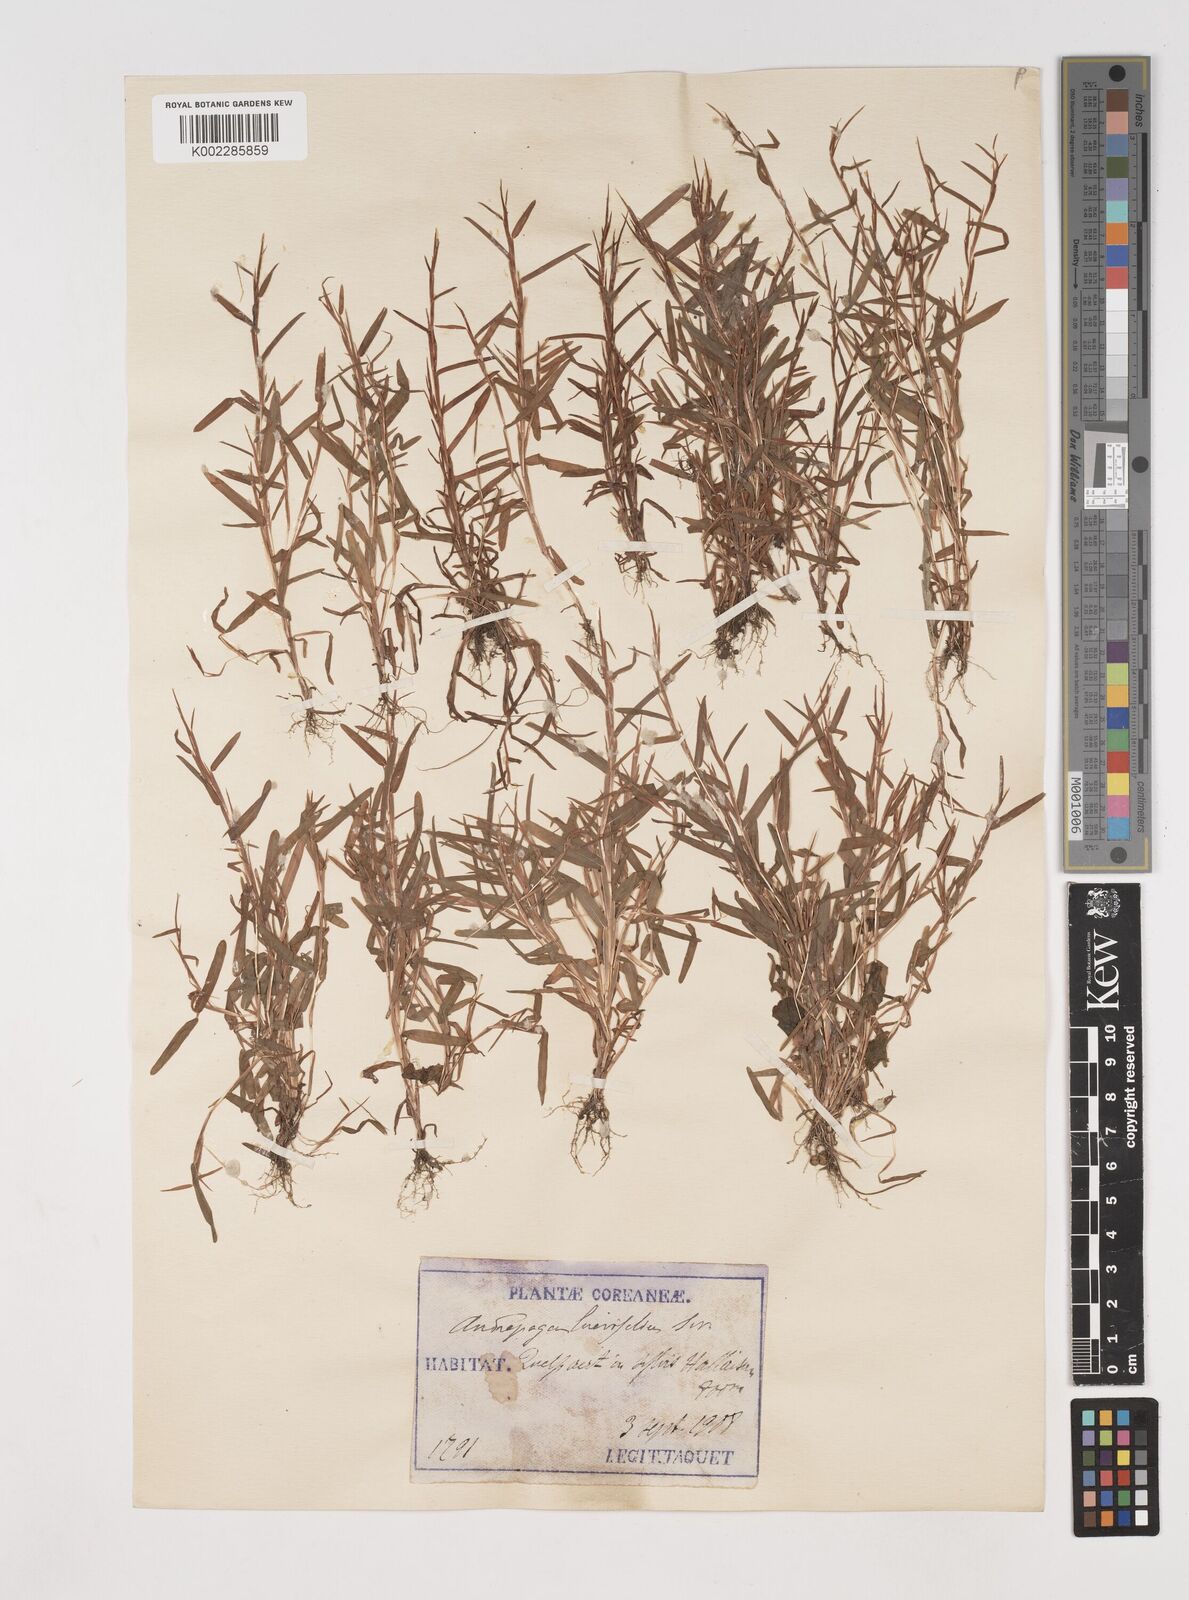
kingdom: Plantae
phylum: Tracheophyta
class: Liliopsida
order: Poales
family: Poaceae
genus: Schizachyrium
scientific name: Schizachyrium brevifolium
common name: Serillo dulce
